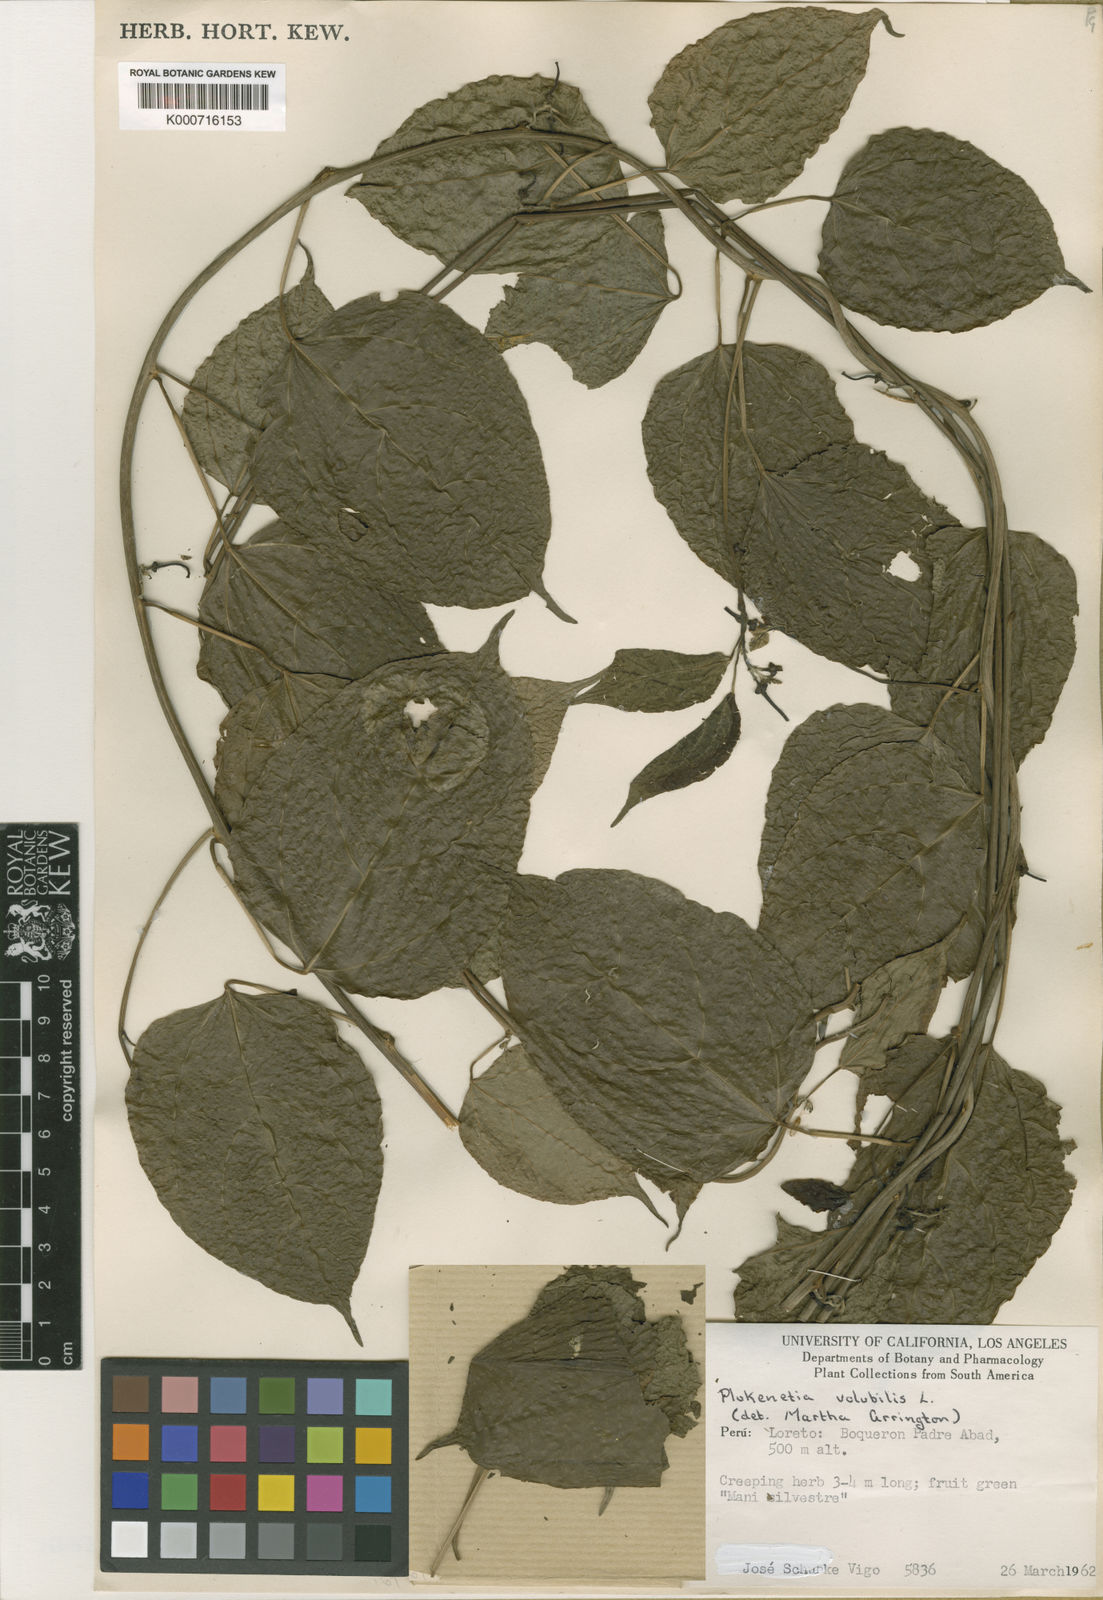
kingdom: Plantae
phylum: Tracheophyta
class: Magnoliopsida
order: Malpighiales
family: Euphorbiaceae
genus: Plukenetia
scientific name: Plukenetia volubilis
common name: Inca-peanut
